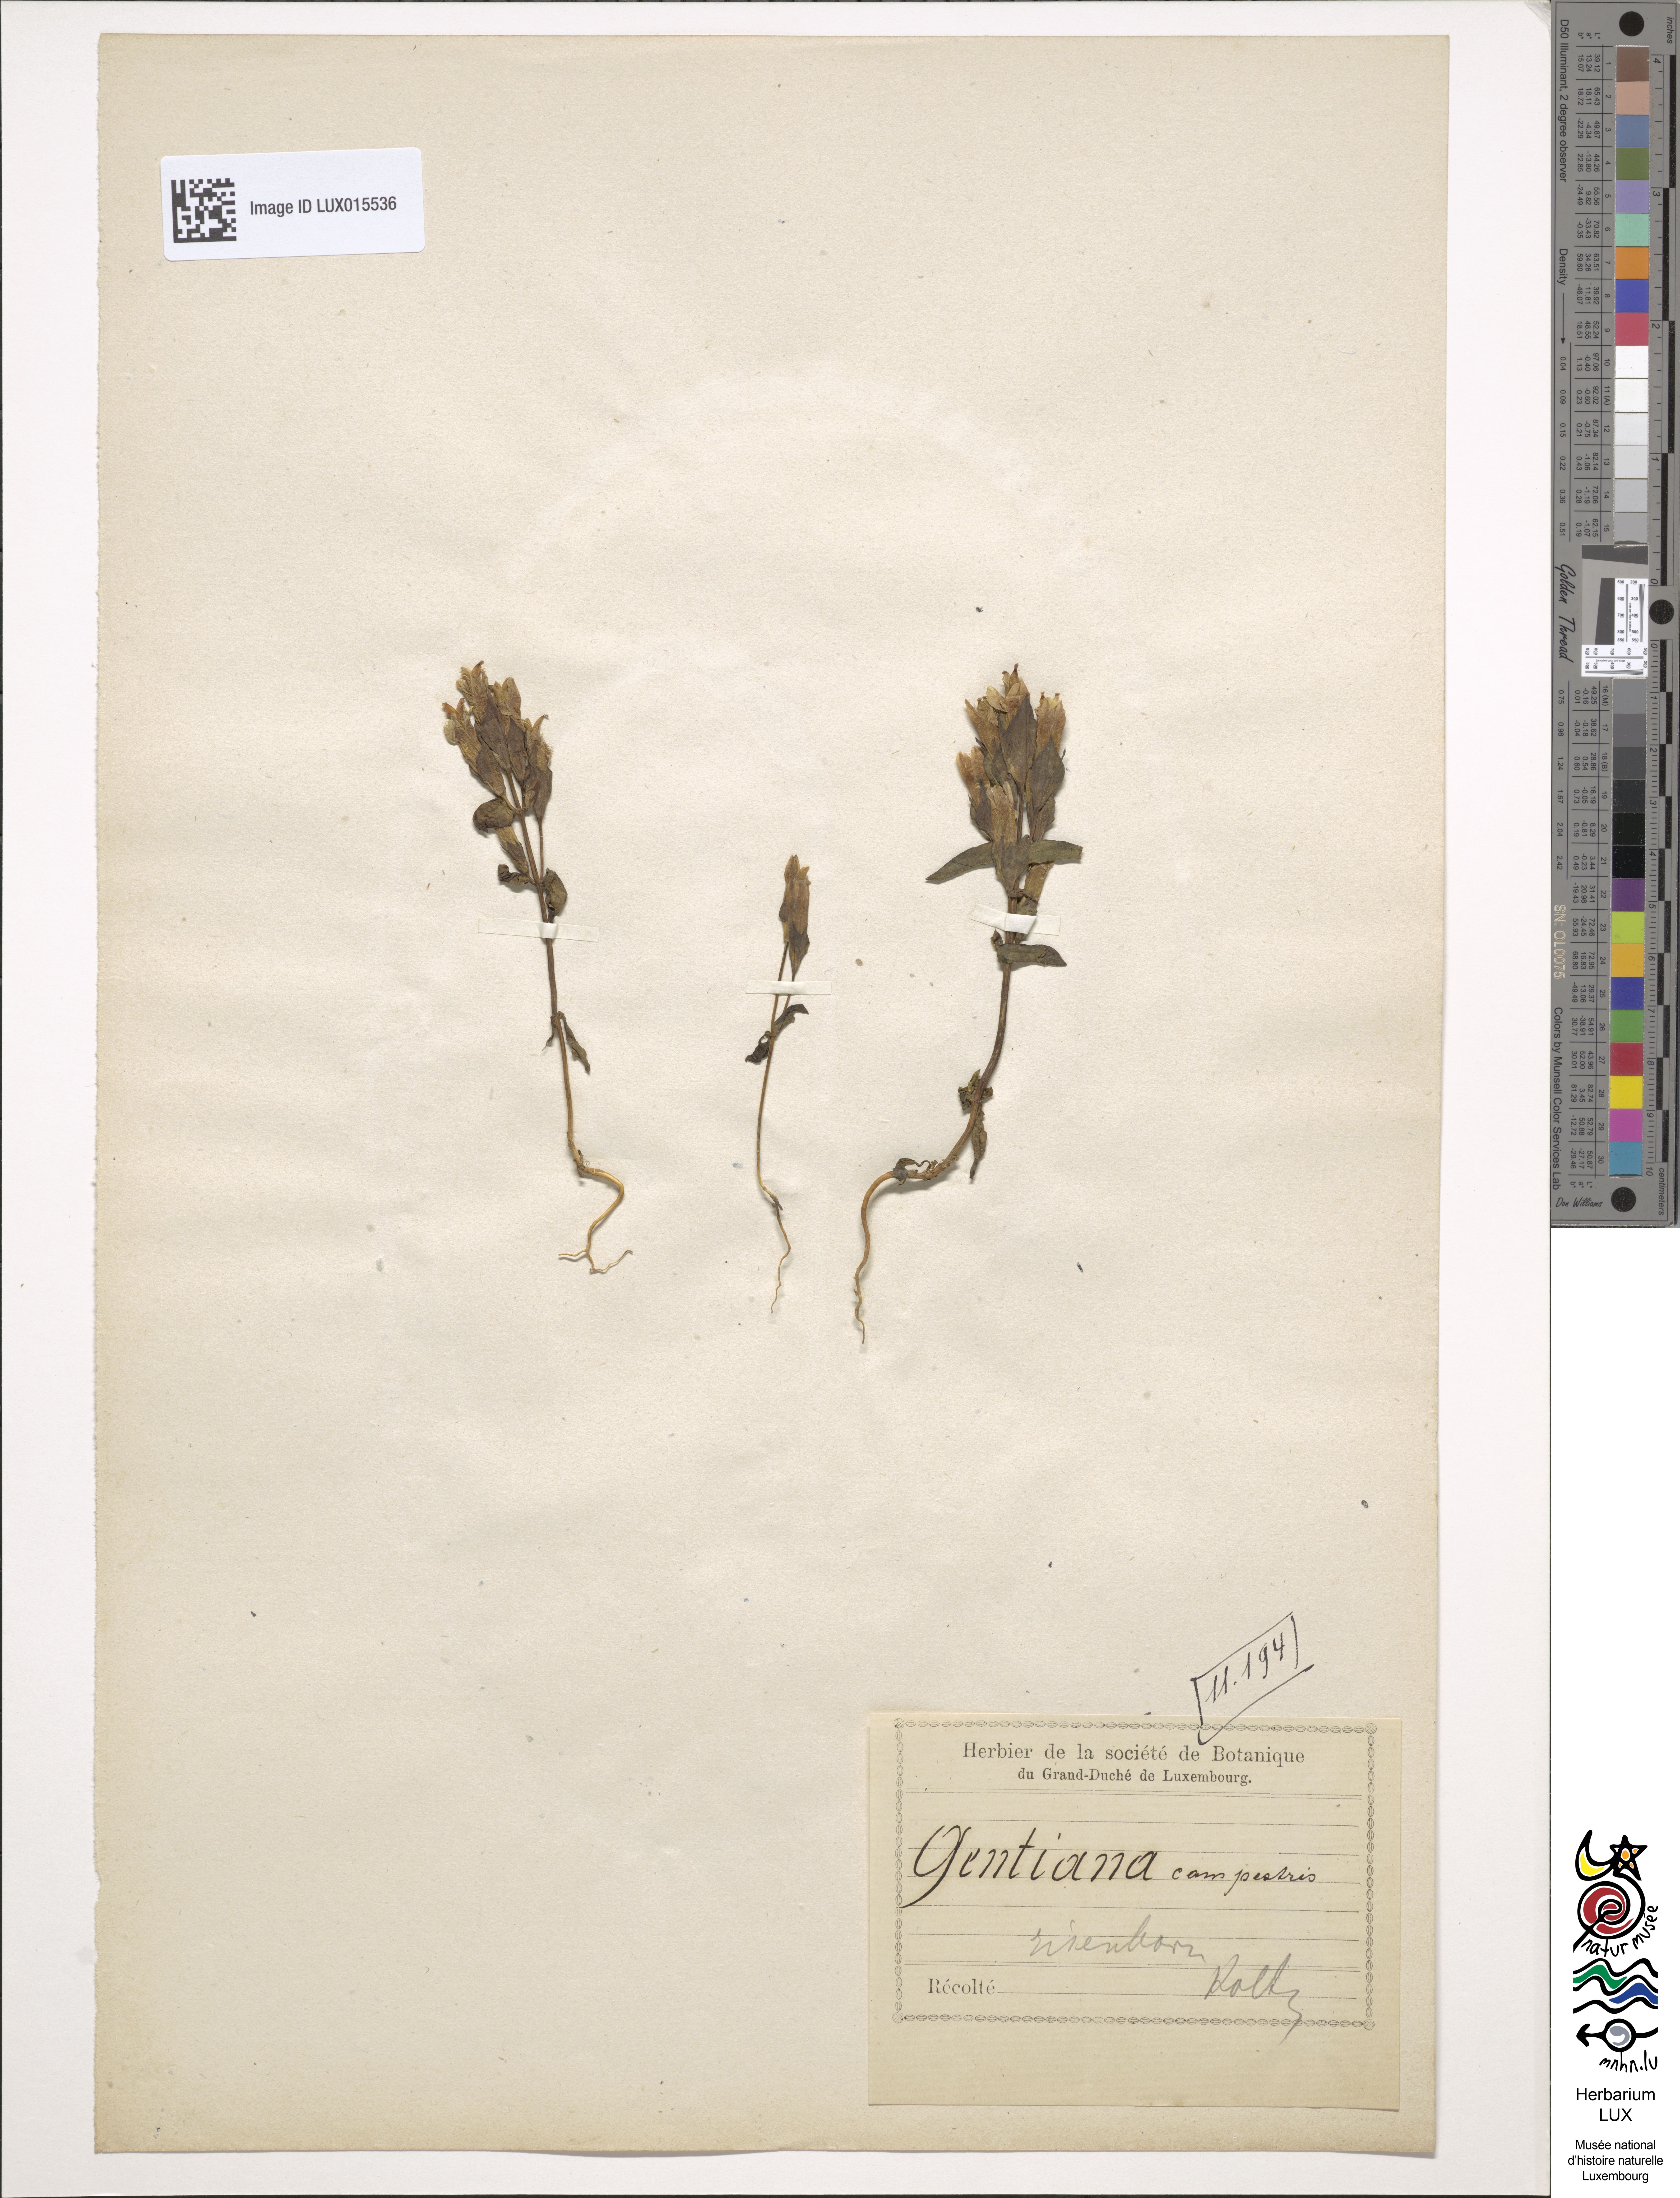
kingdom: Plantae
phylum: Tracheophyta
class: Magnoliopsida
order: Gentianales
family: Gentianaceae
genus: Gentianella
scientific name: Gentianella campestris
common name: Field gentian
